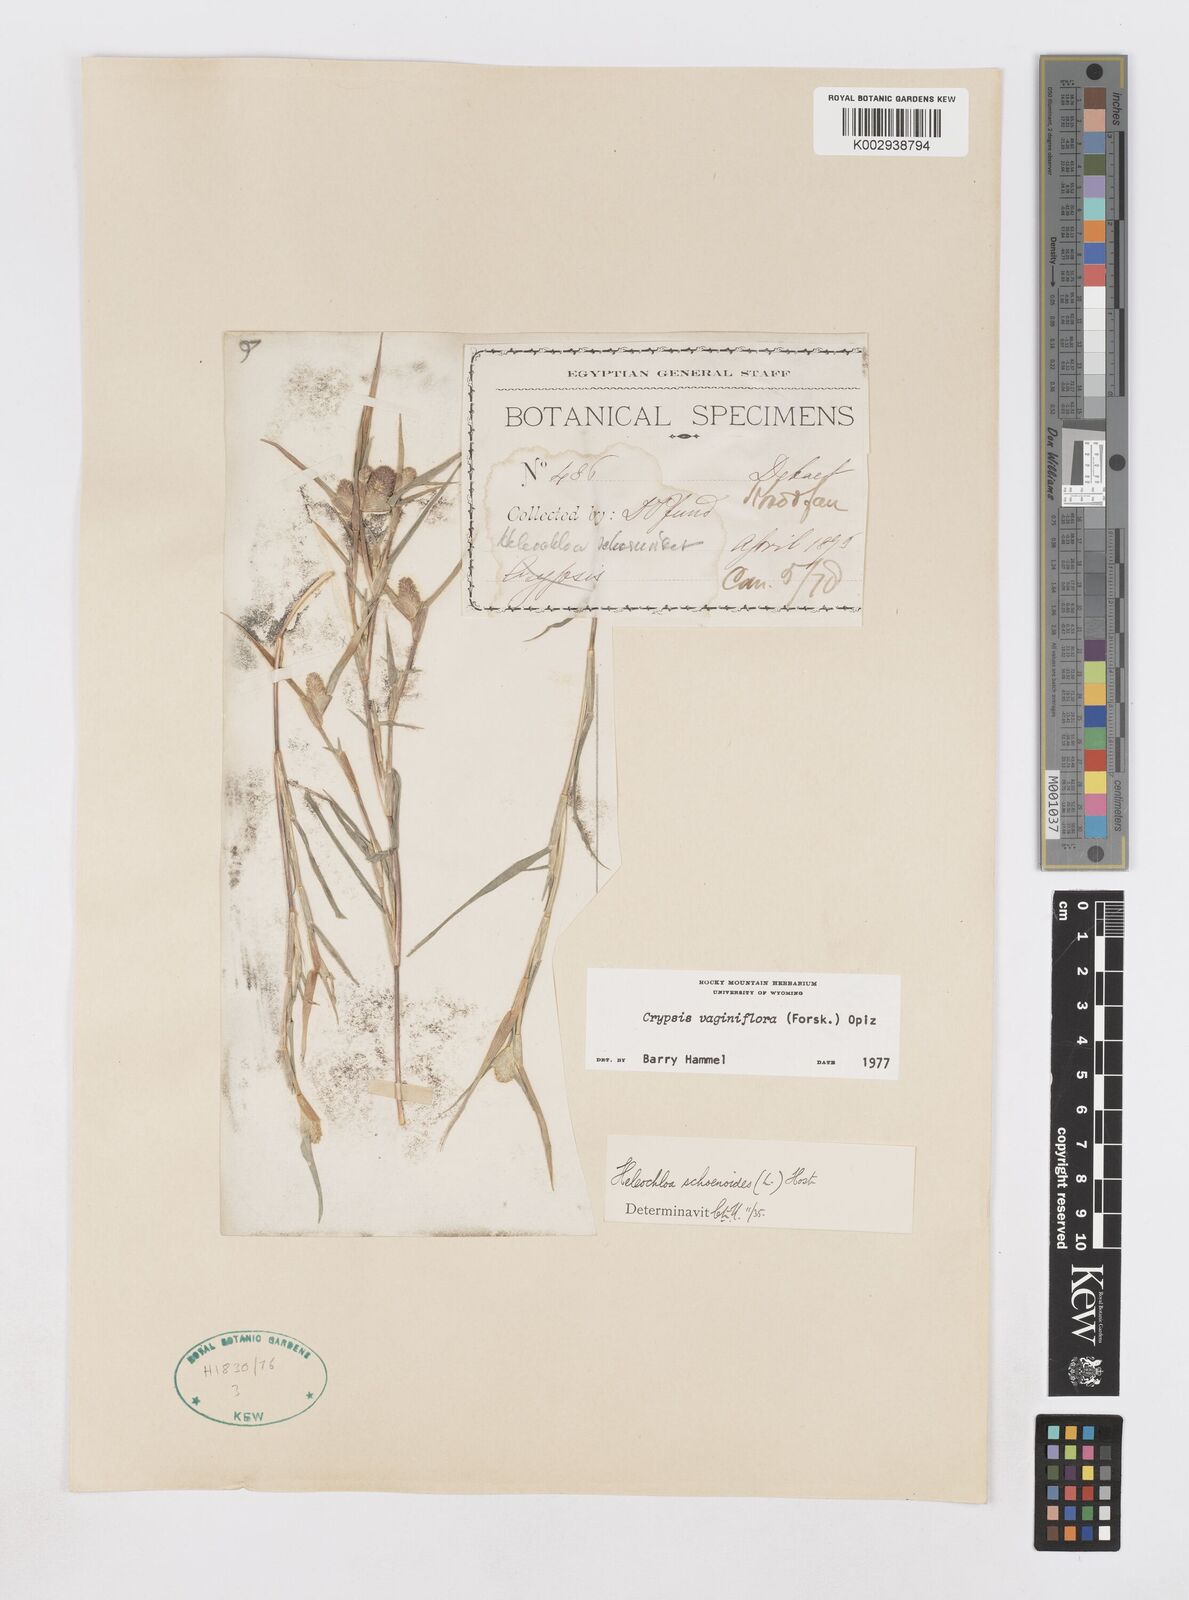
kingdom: Plantae
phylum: Tracheophyta
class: Liliopsida
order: Poales
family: Poaceae
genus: Sporobolus
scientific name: Sporobolus niliacus
